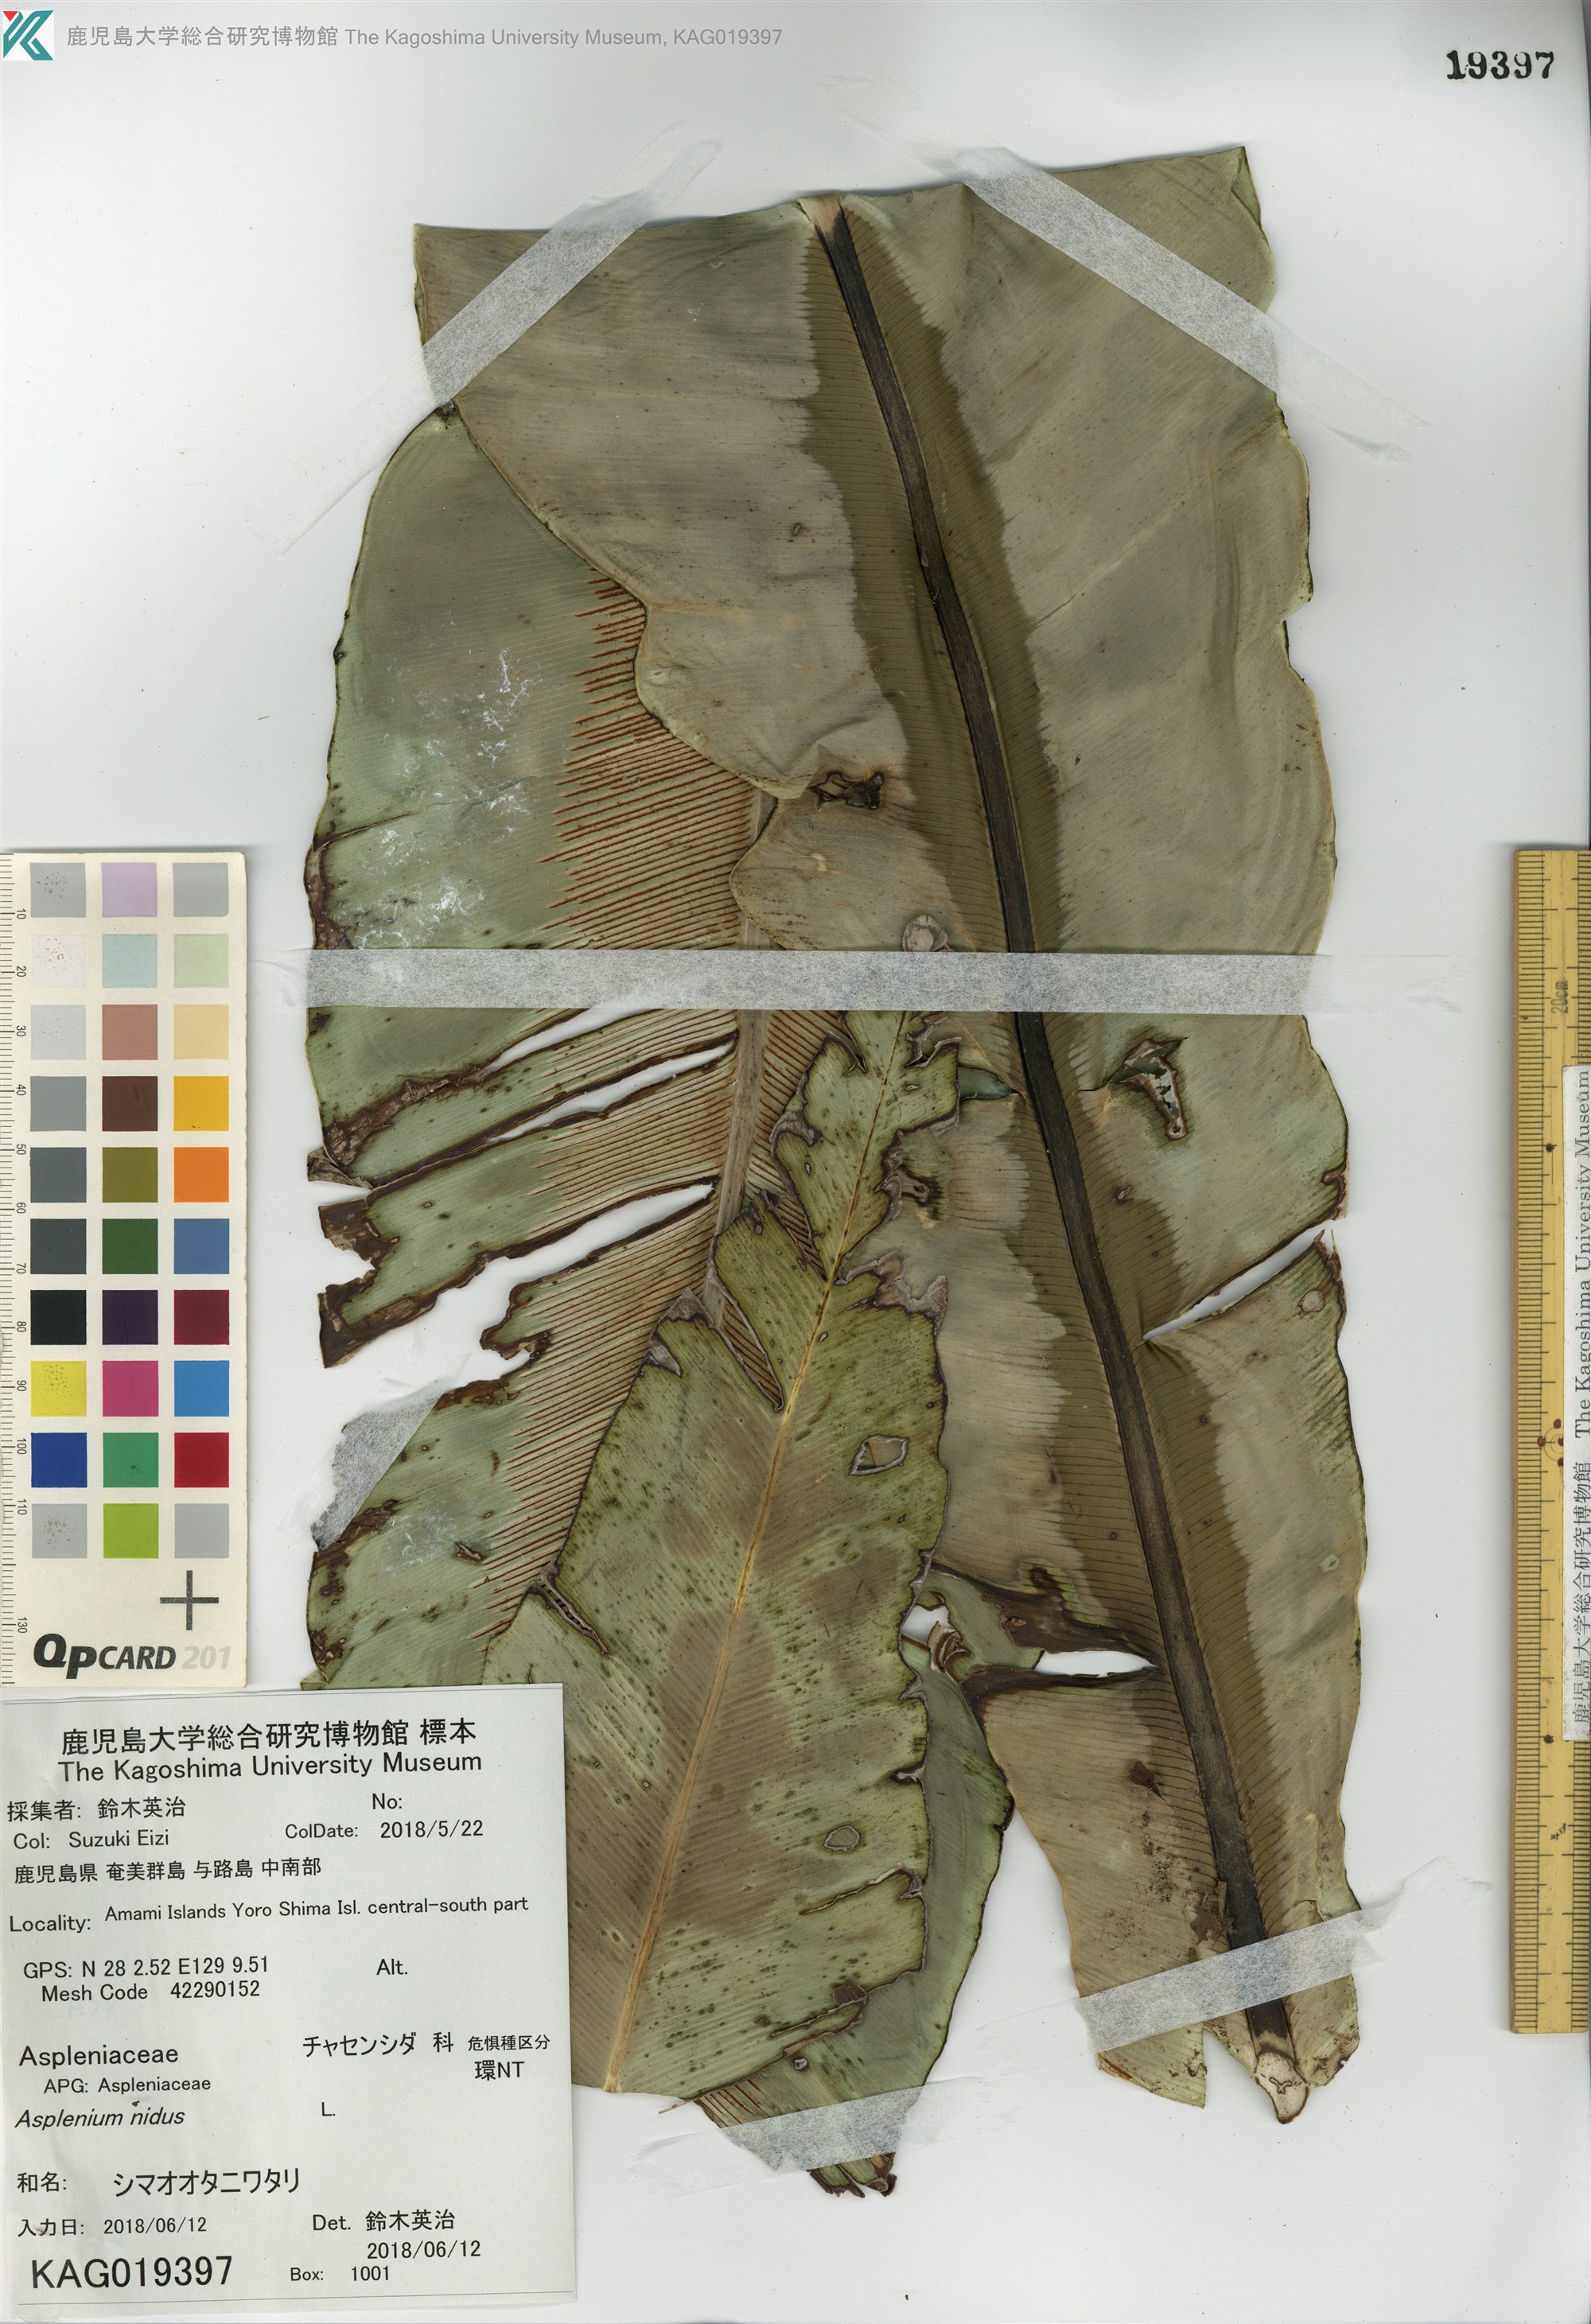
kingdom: Plantae
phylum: Tracheophyta
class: Polypodiopsida
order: Polypodiales
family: Aspleniaceae
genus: Asplenium
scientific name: Asplenium nidus
